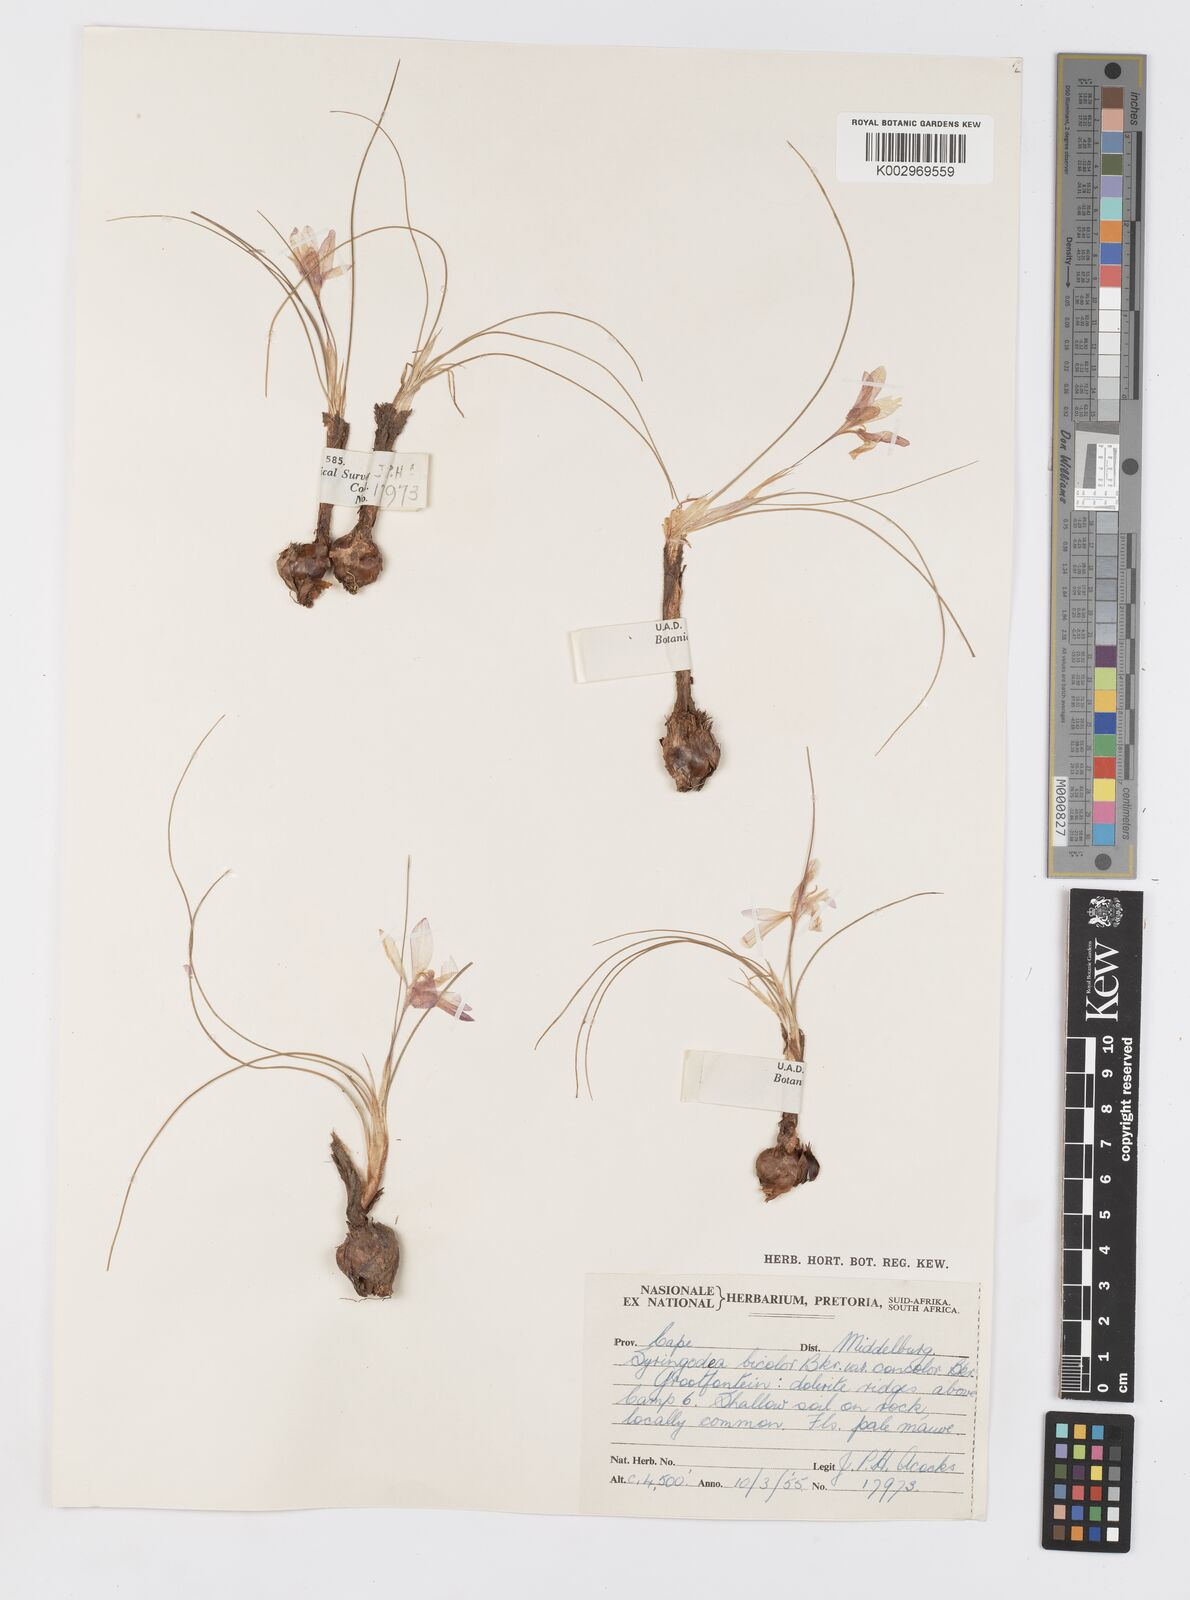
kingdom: Plantae
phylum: Tracheophyta
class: Liliopsida
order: Asparagales
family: Iridaceae
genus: Syringodea
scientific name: Syringodea concolor
